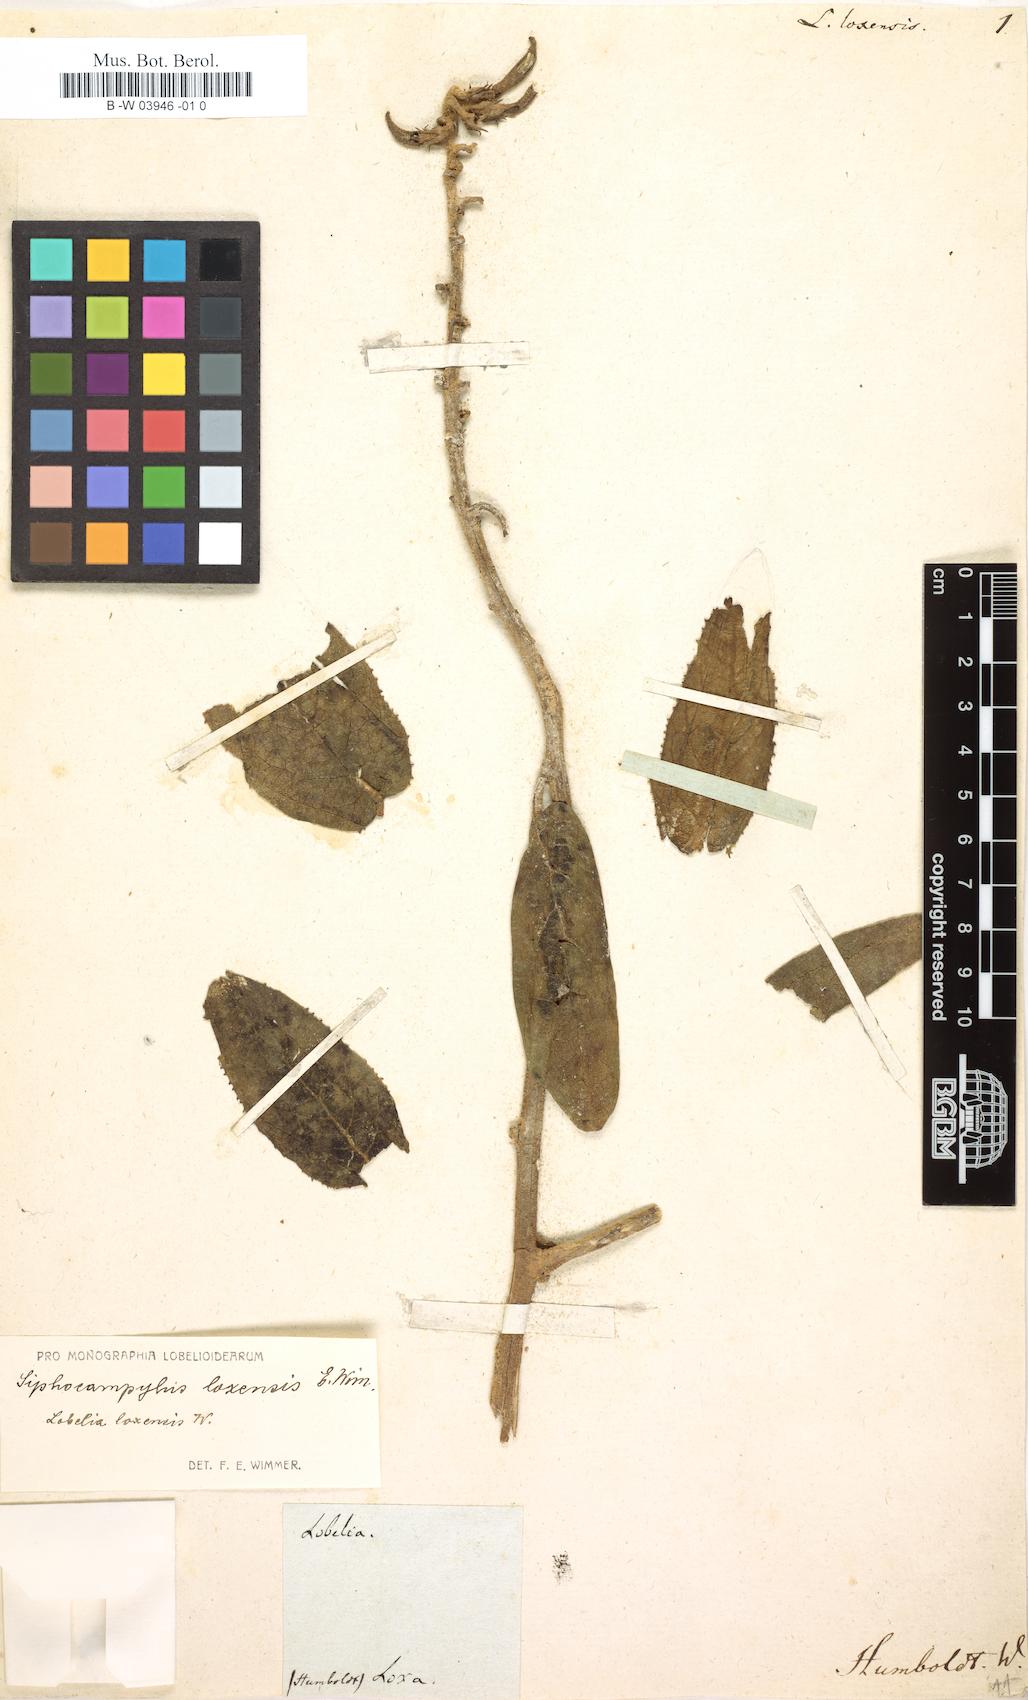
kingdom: Plantae
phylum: Tracheophyta
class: Magnoliopsida
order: Asterales
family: Campanulaceae
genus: Siphocampylus
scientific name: Siphocampylus loxensis
